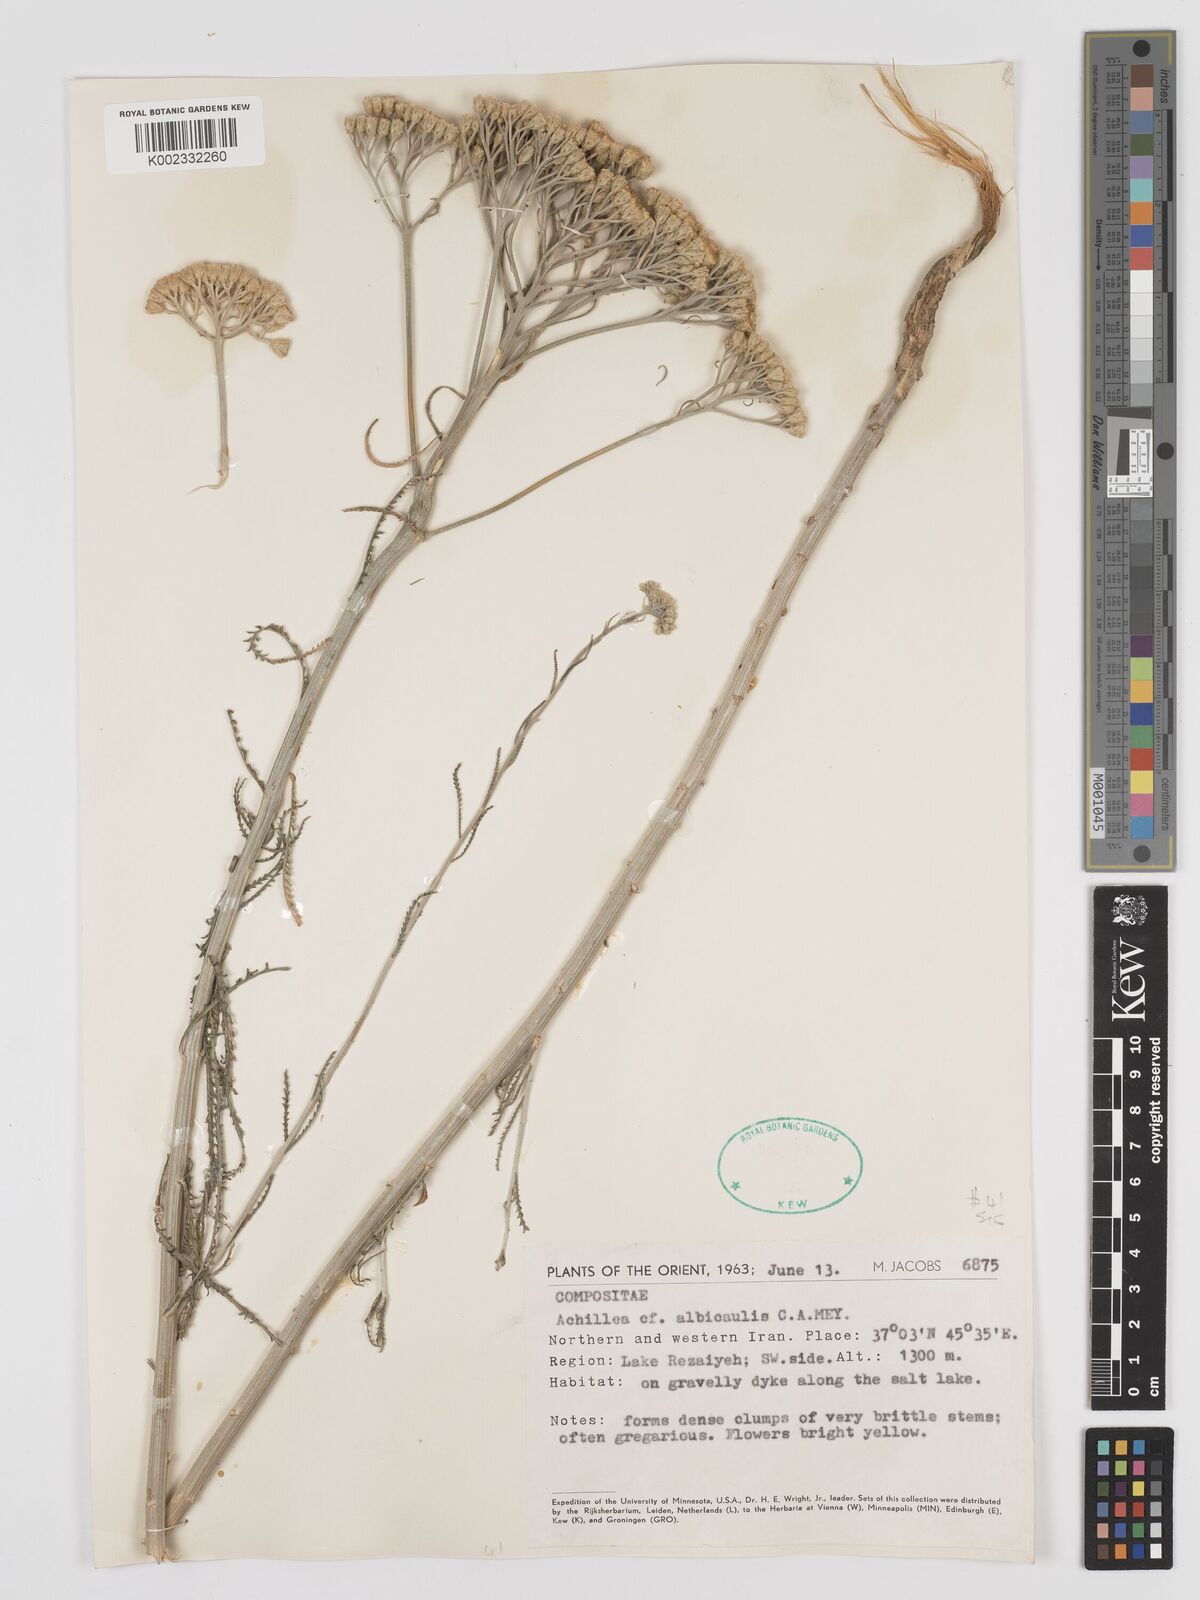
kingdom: Plantae
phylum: Tracheophyta
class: Magnoliopsida
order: Asterales
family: Asteraceae
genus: Achillea
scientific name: Achillea tenuifolia
